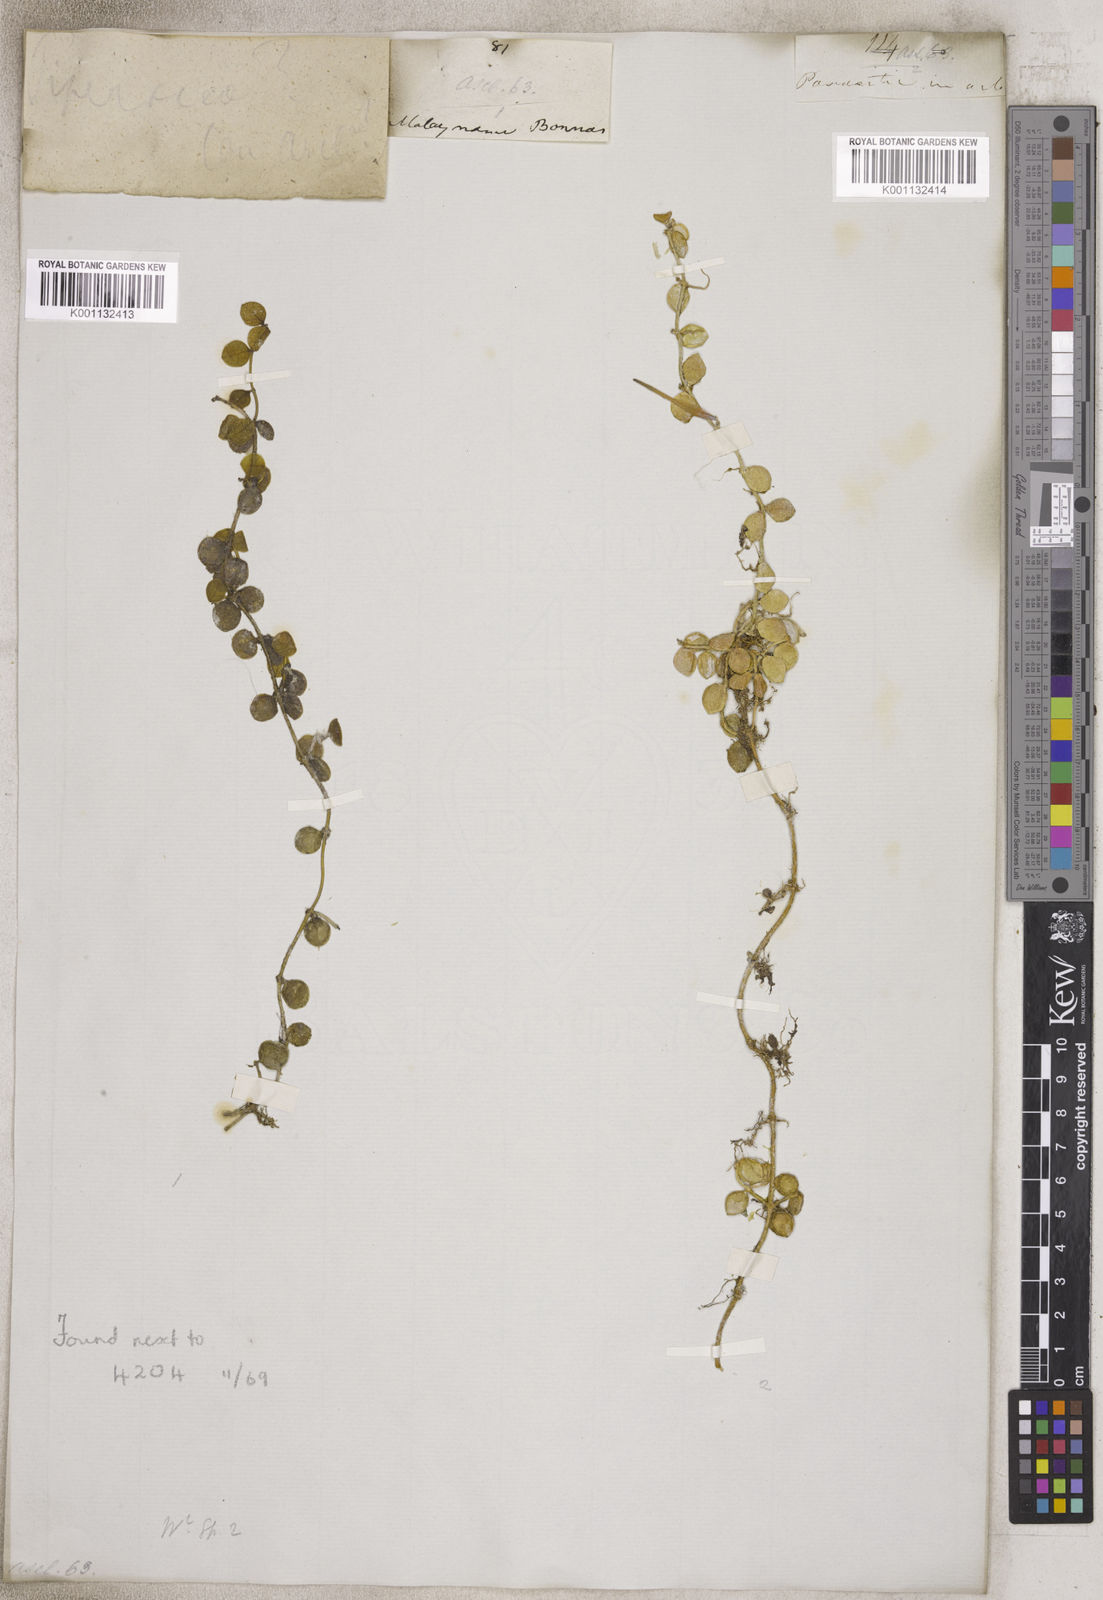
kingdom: Plantae
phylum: Tracheophyta
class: Magnoliopsida
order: Gentianales
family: Apocynaceae
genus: Dischidia
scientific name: Dischidia
